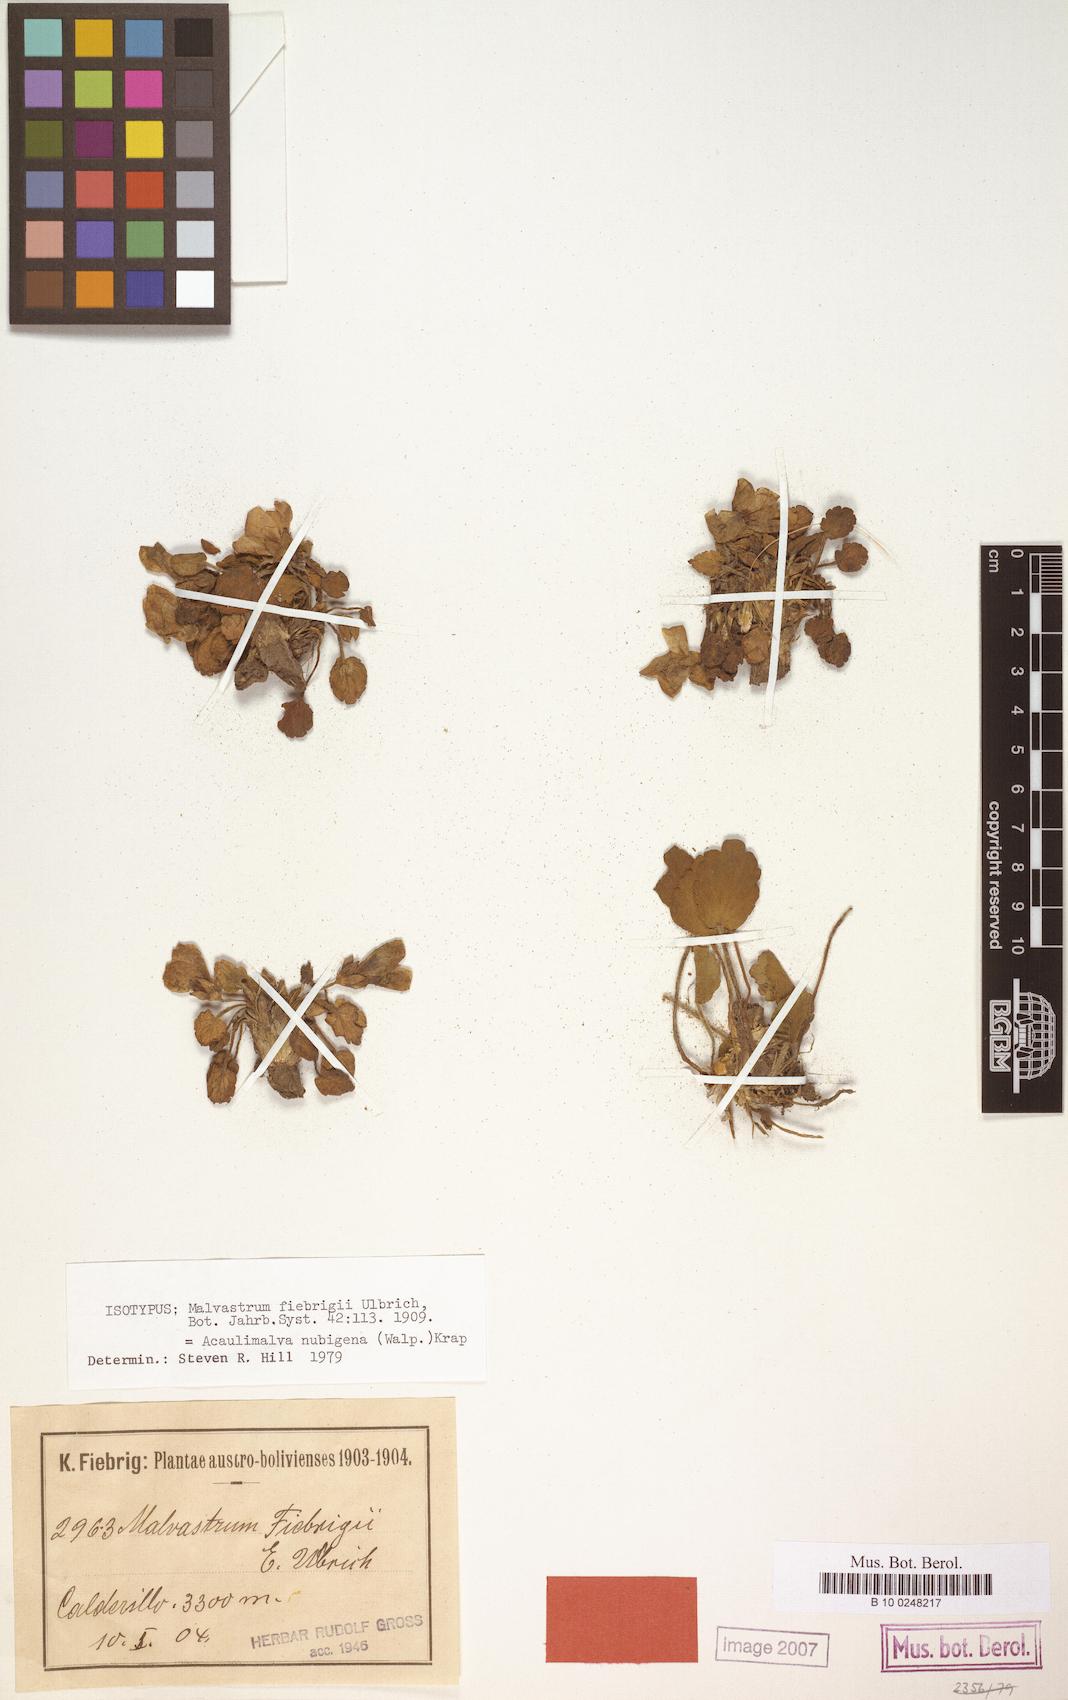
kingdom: Plantae
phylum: Tracheophyta
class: Magnoliopsida
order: Malvales
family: Malvaceae
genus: Acaulimalva
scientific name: Acaulimalva nubigena
